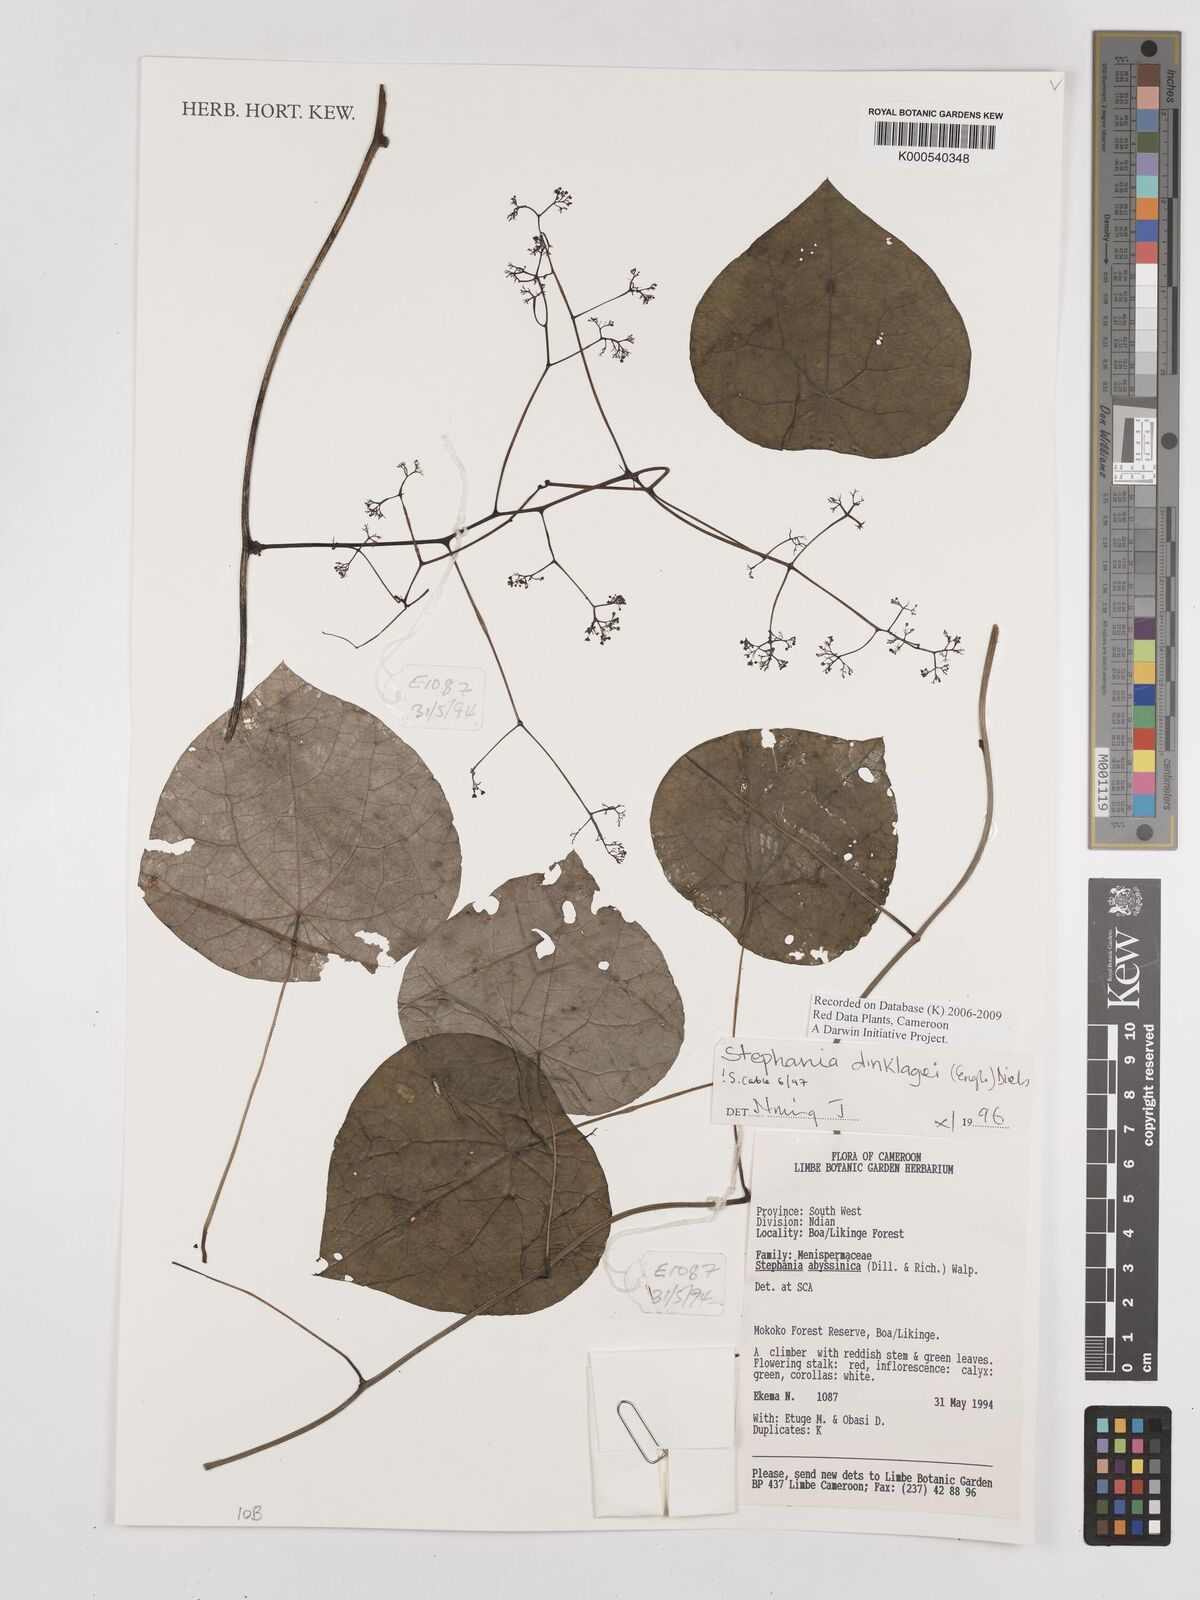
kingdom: Plantae
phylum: Tracheophyta
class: Magnoliopsida
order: Ranunculales
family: Menispermaceae
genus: Stephania
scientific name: Stephania dinklagei
